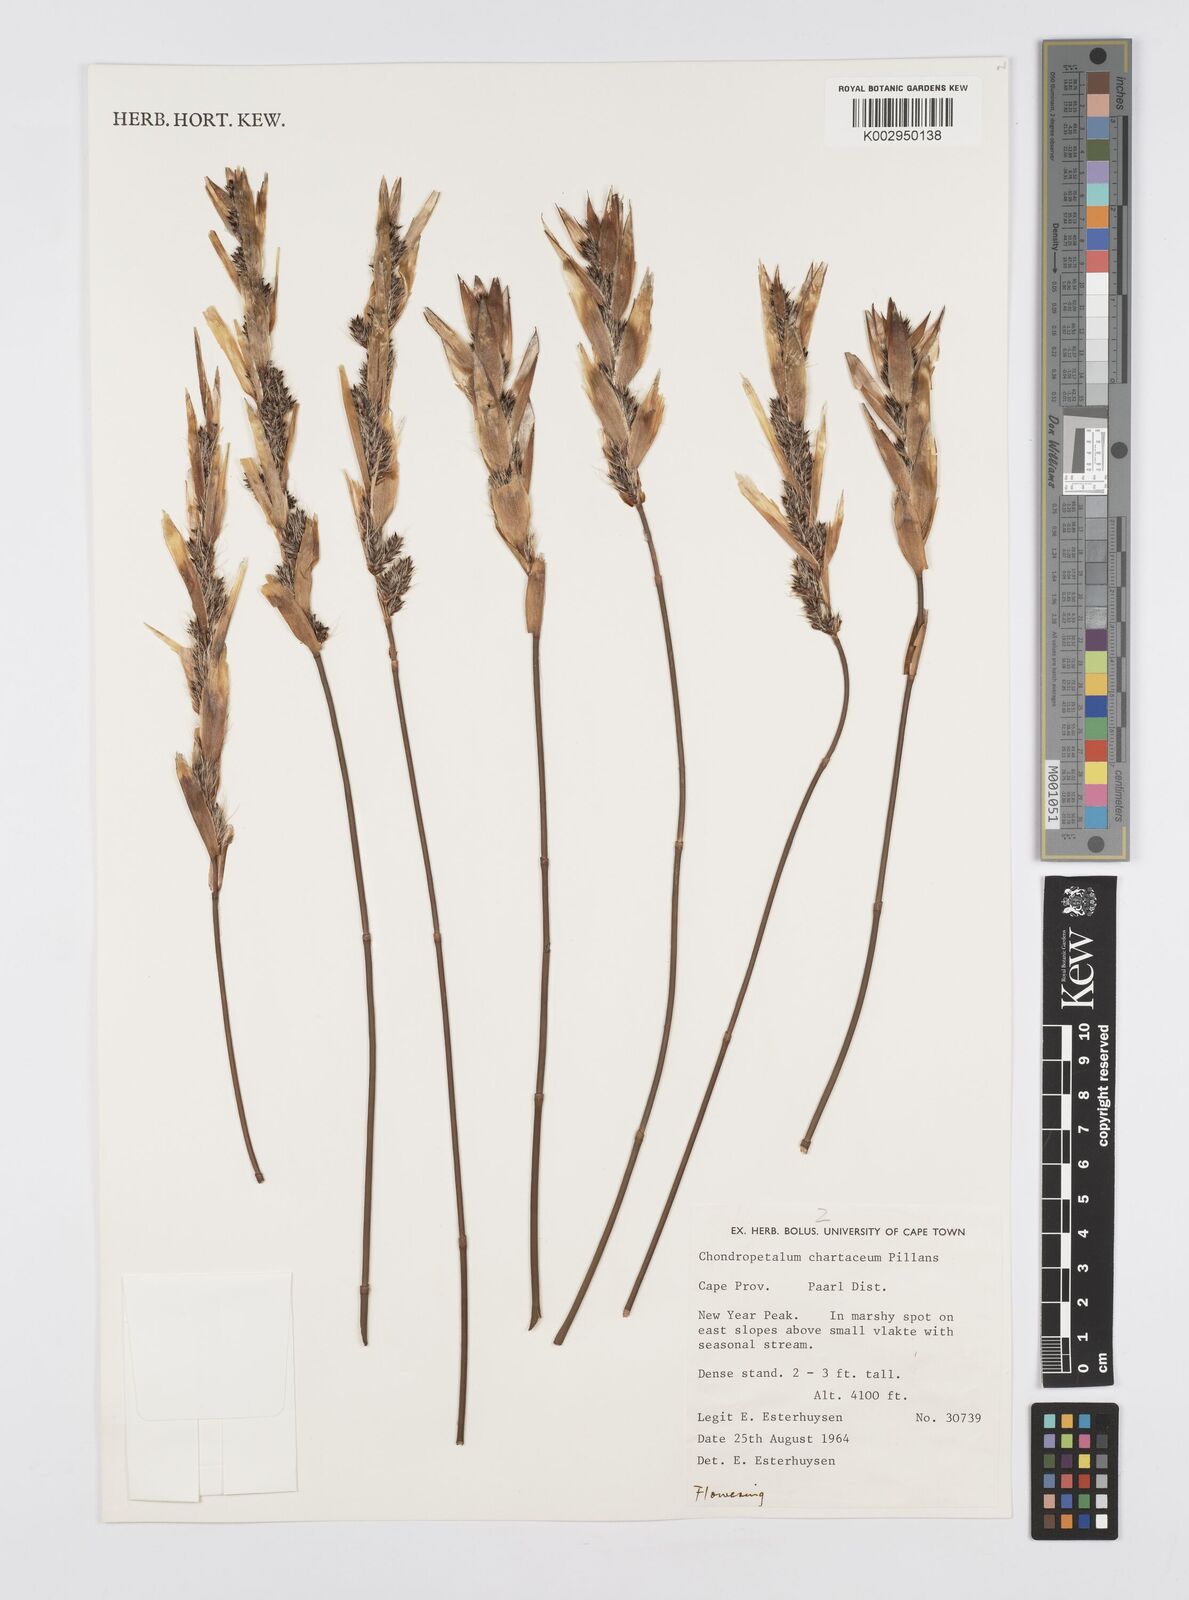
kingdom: Plantae
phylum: Tracheophyta
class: Liliopsida
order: Poales
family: Restionaceae
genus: Askidiosperma
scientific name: Askidiosperma chartaceum
